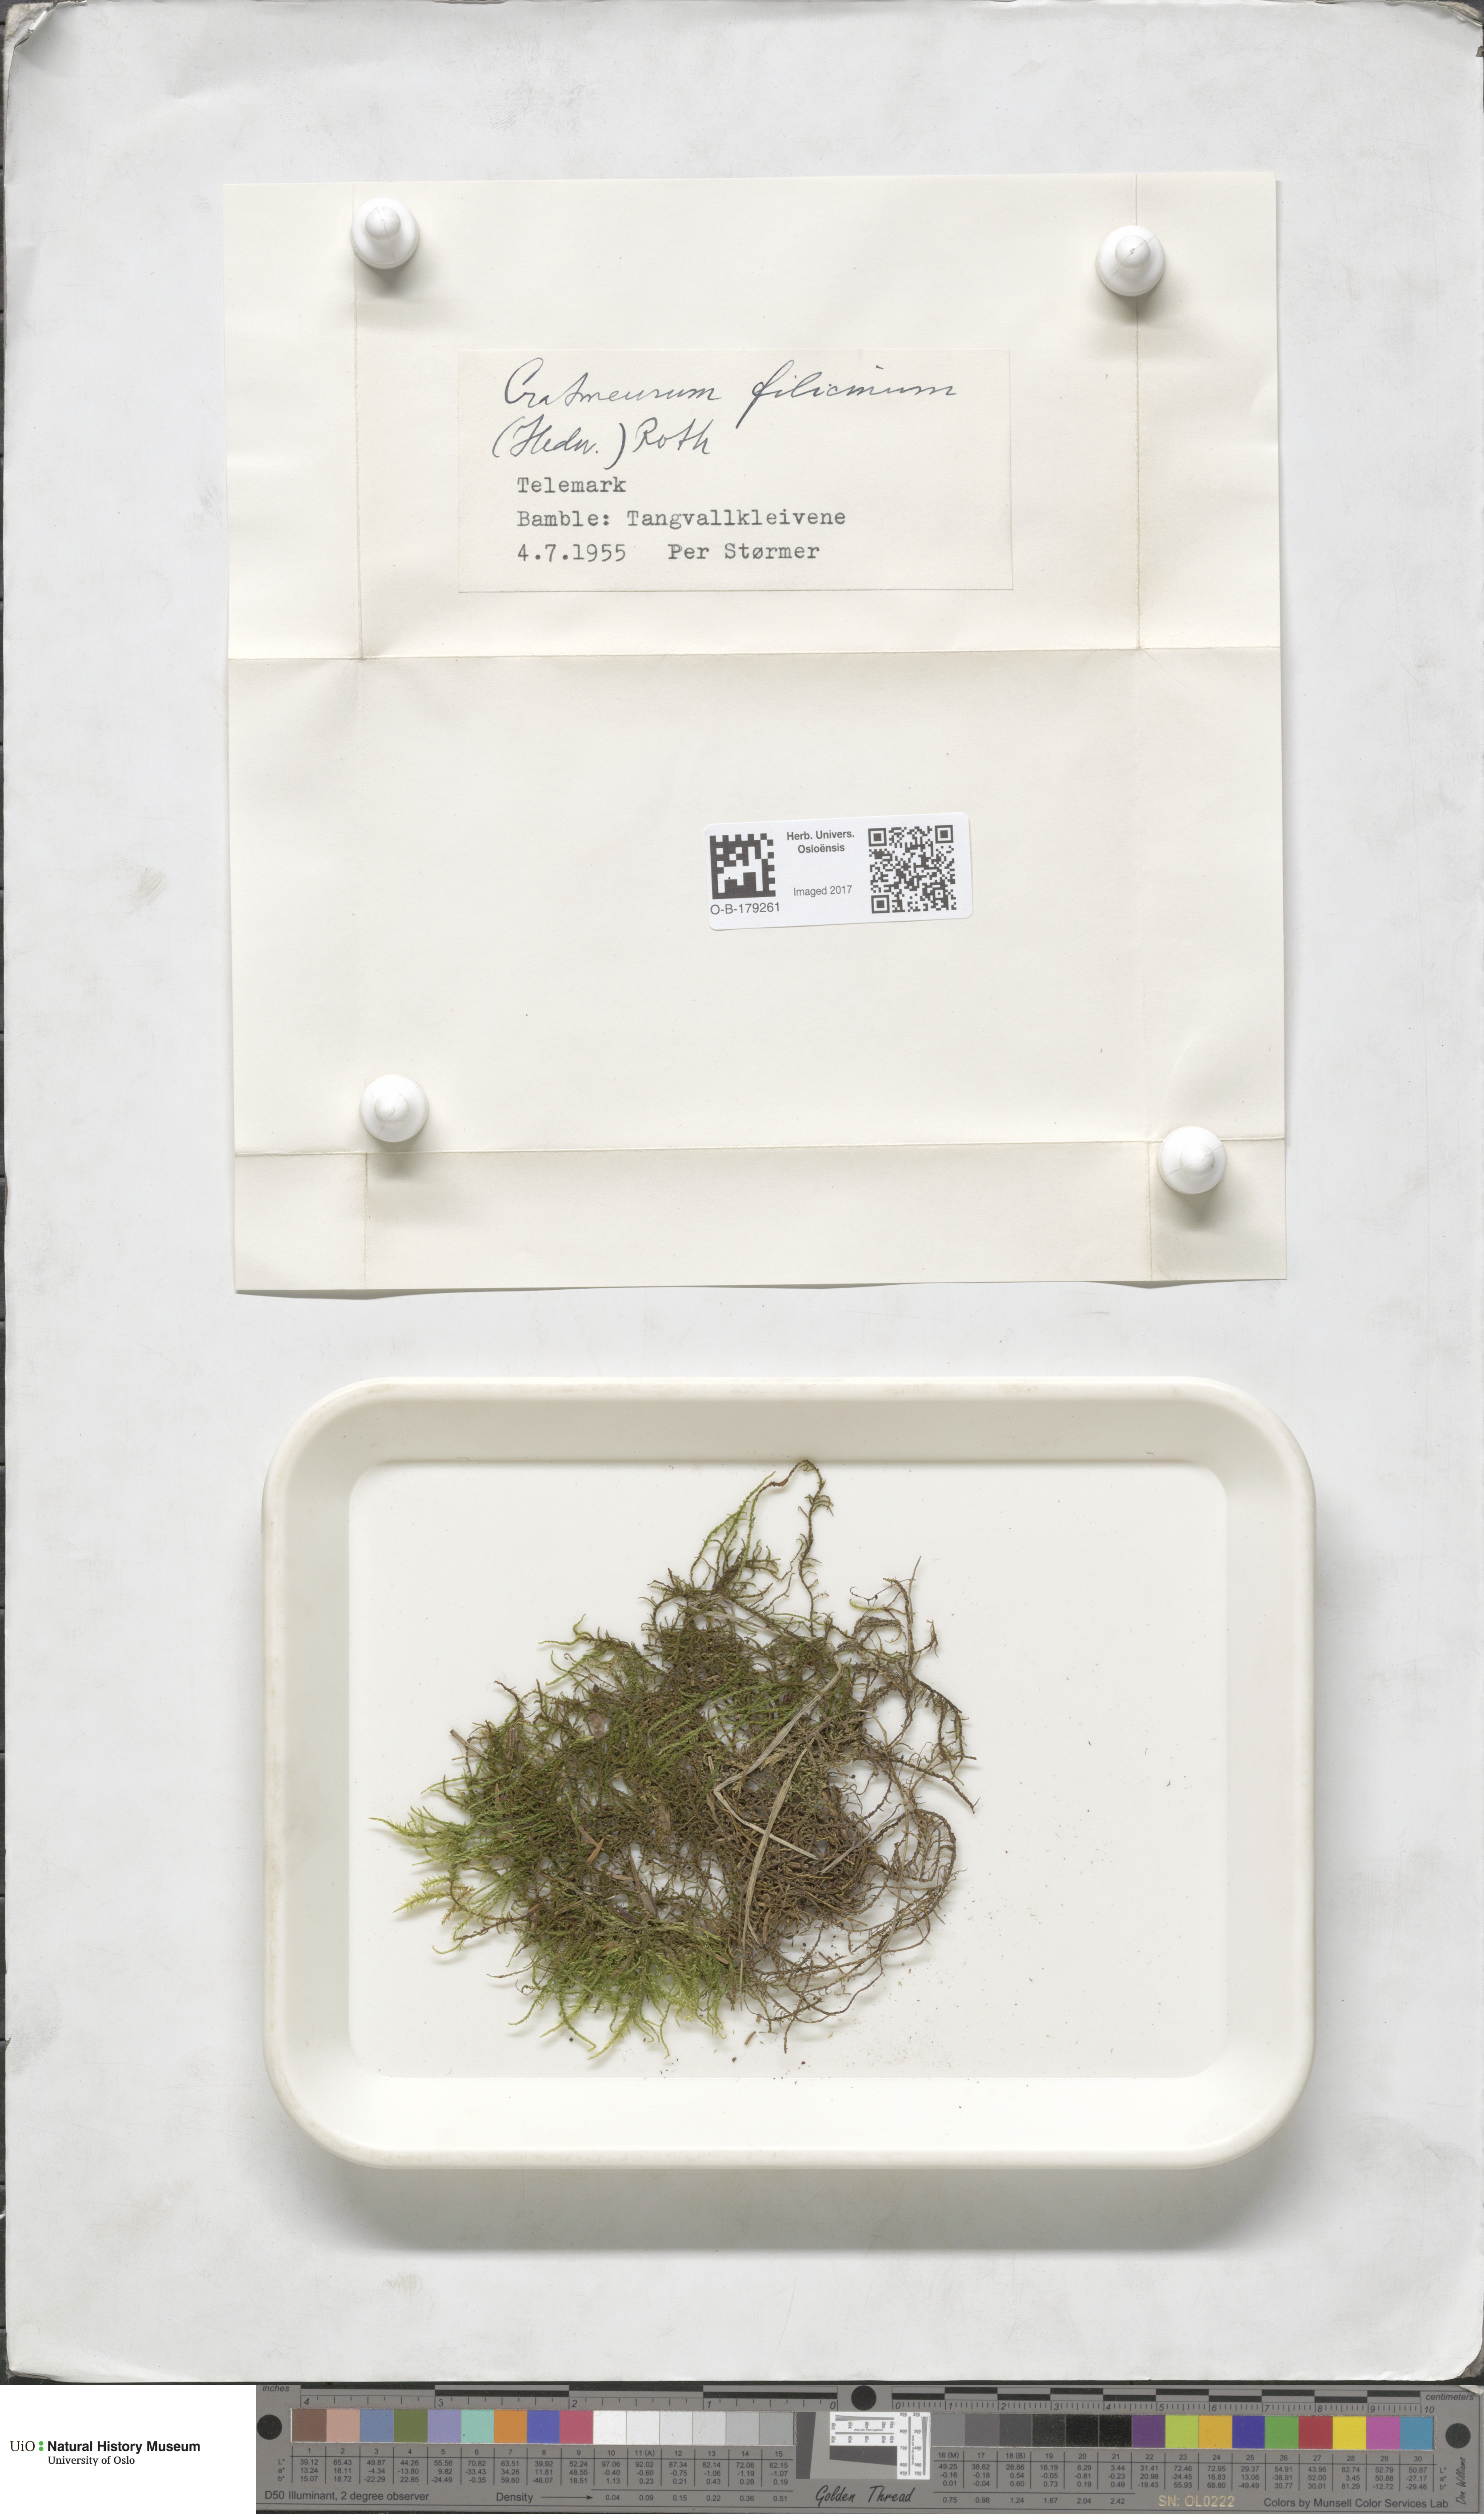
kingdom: Plantae
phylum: Bryophyta
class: Bryopsida
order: Hypnales
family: Amblystegiaceae
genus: Cratoneuron
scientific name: Cratoneuron filicinum
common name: Fern-leaved hook moss
